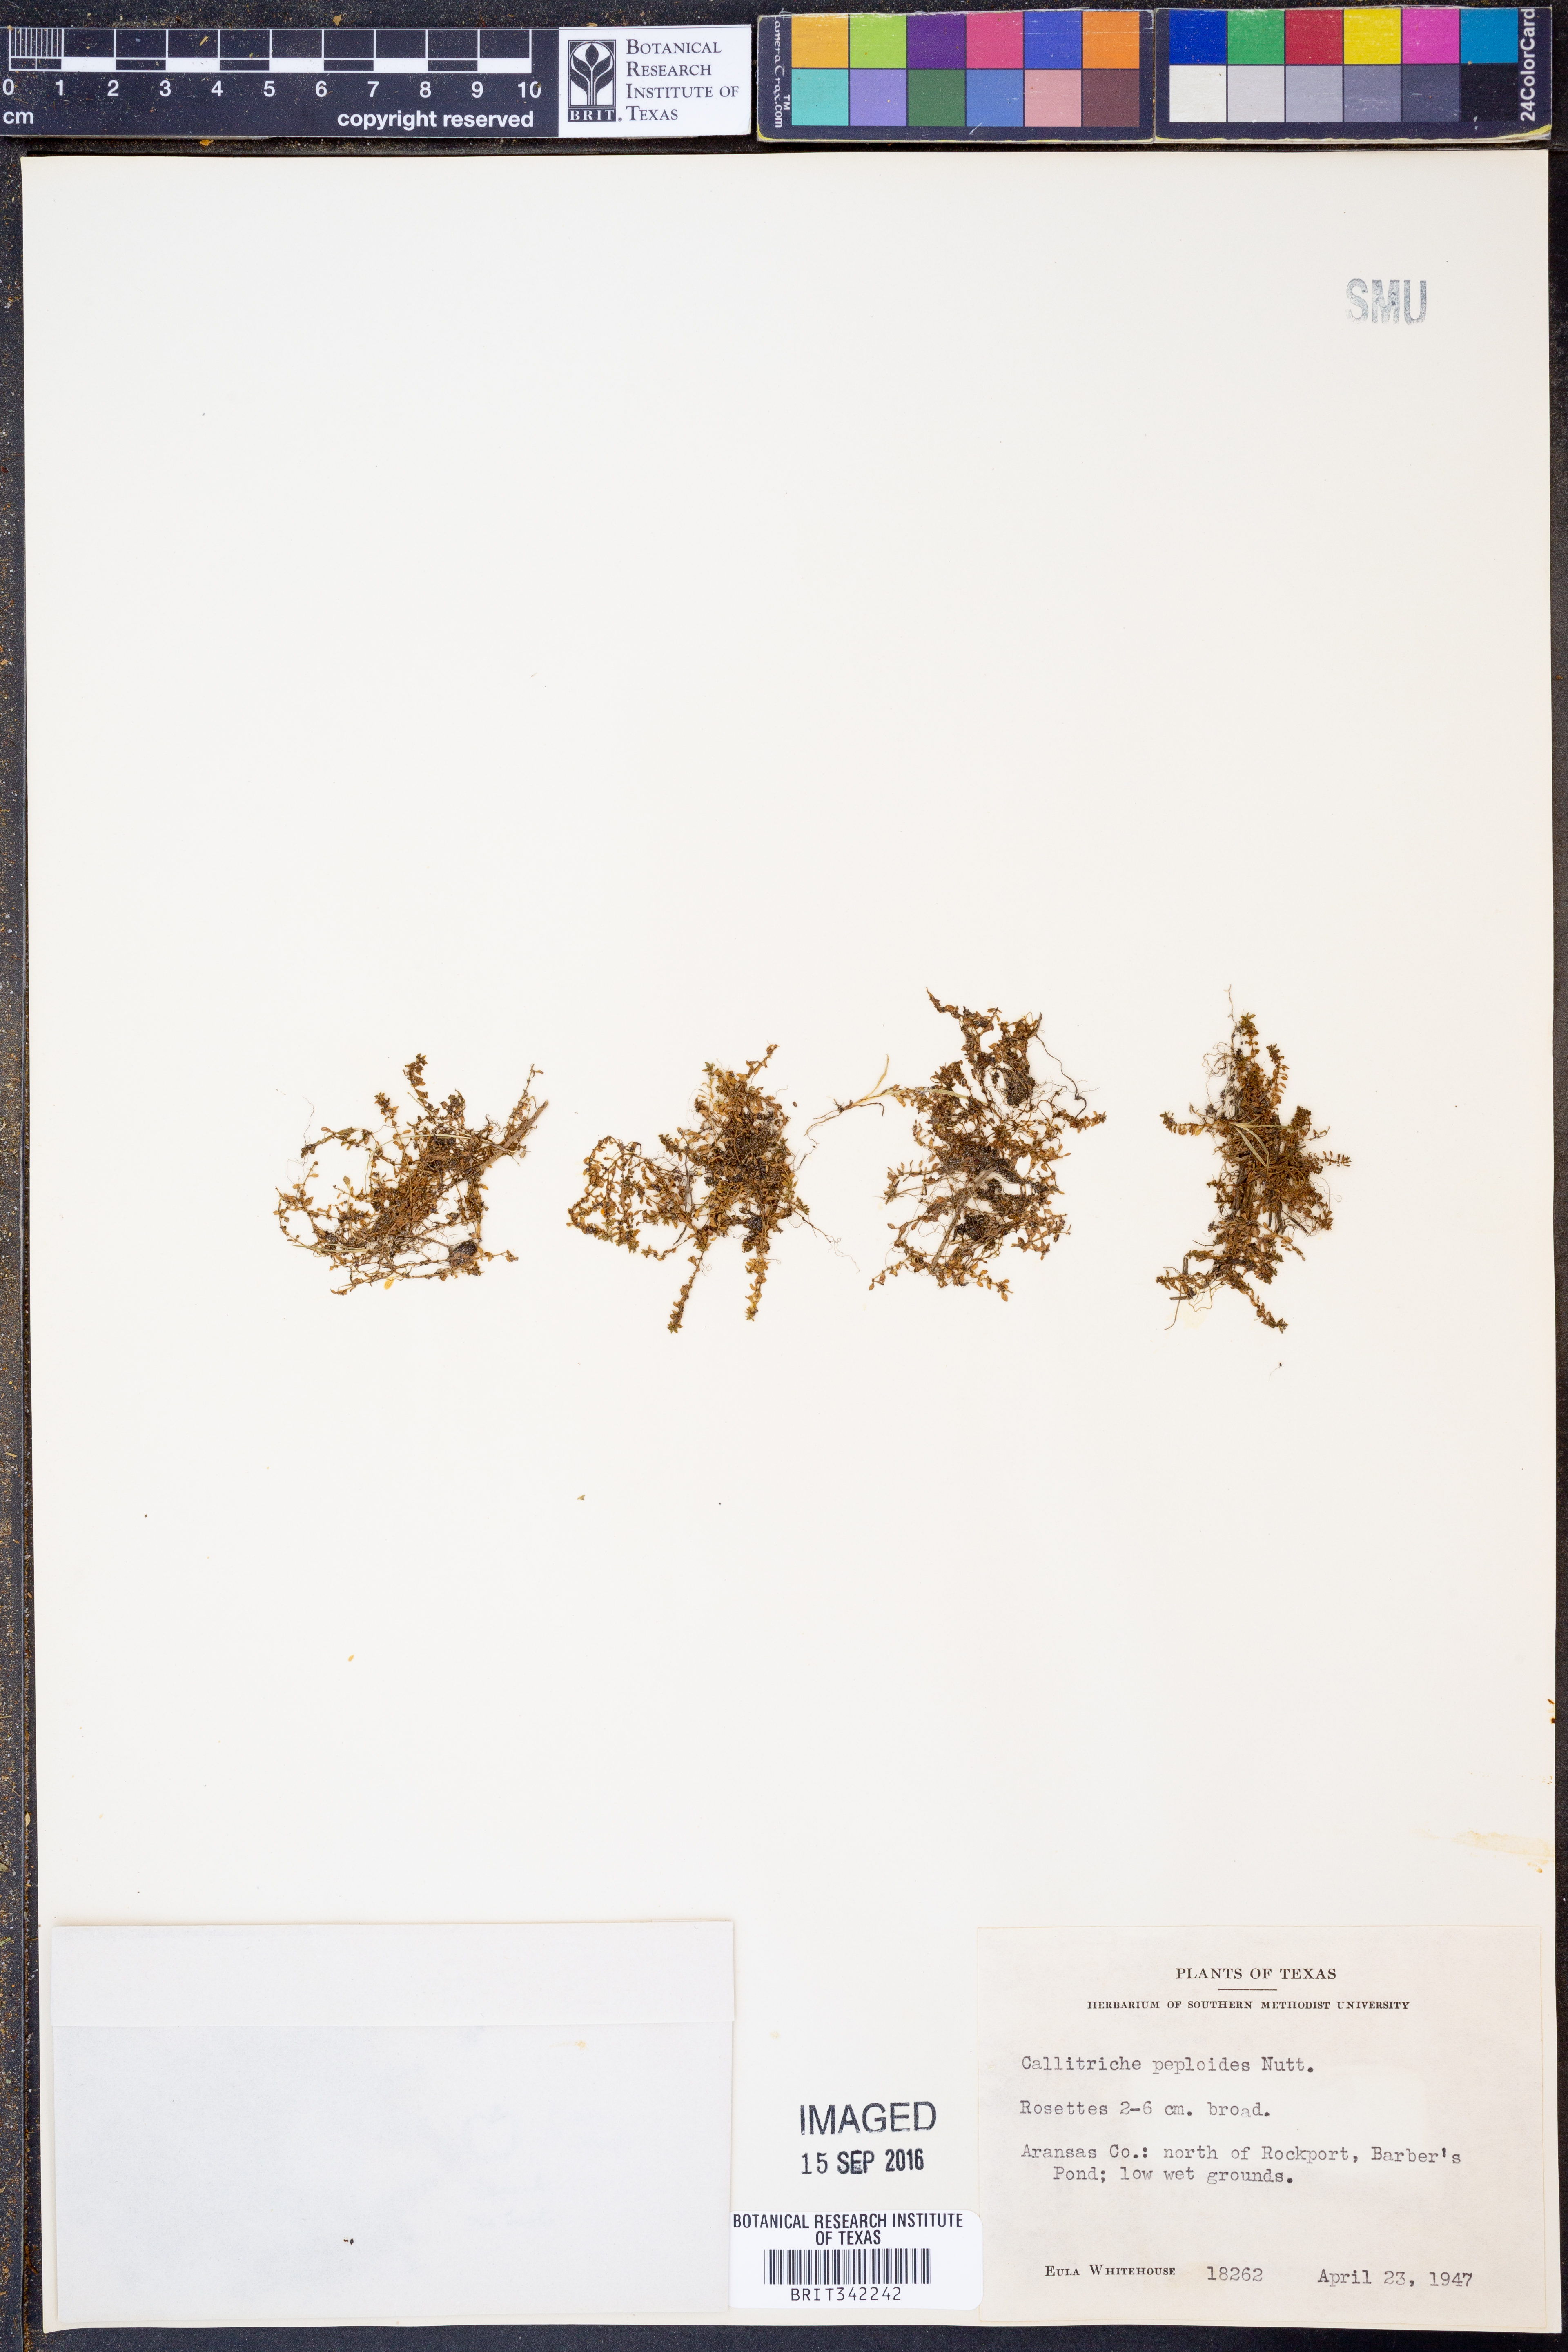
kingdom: Plantae
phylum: Tracheophyta
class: Magnoliopsida
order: Lamiales
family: Plantaginaceae
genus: Callitriche
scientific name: Callitriche peploides
